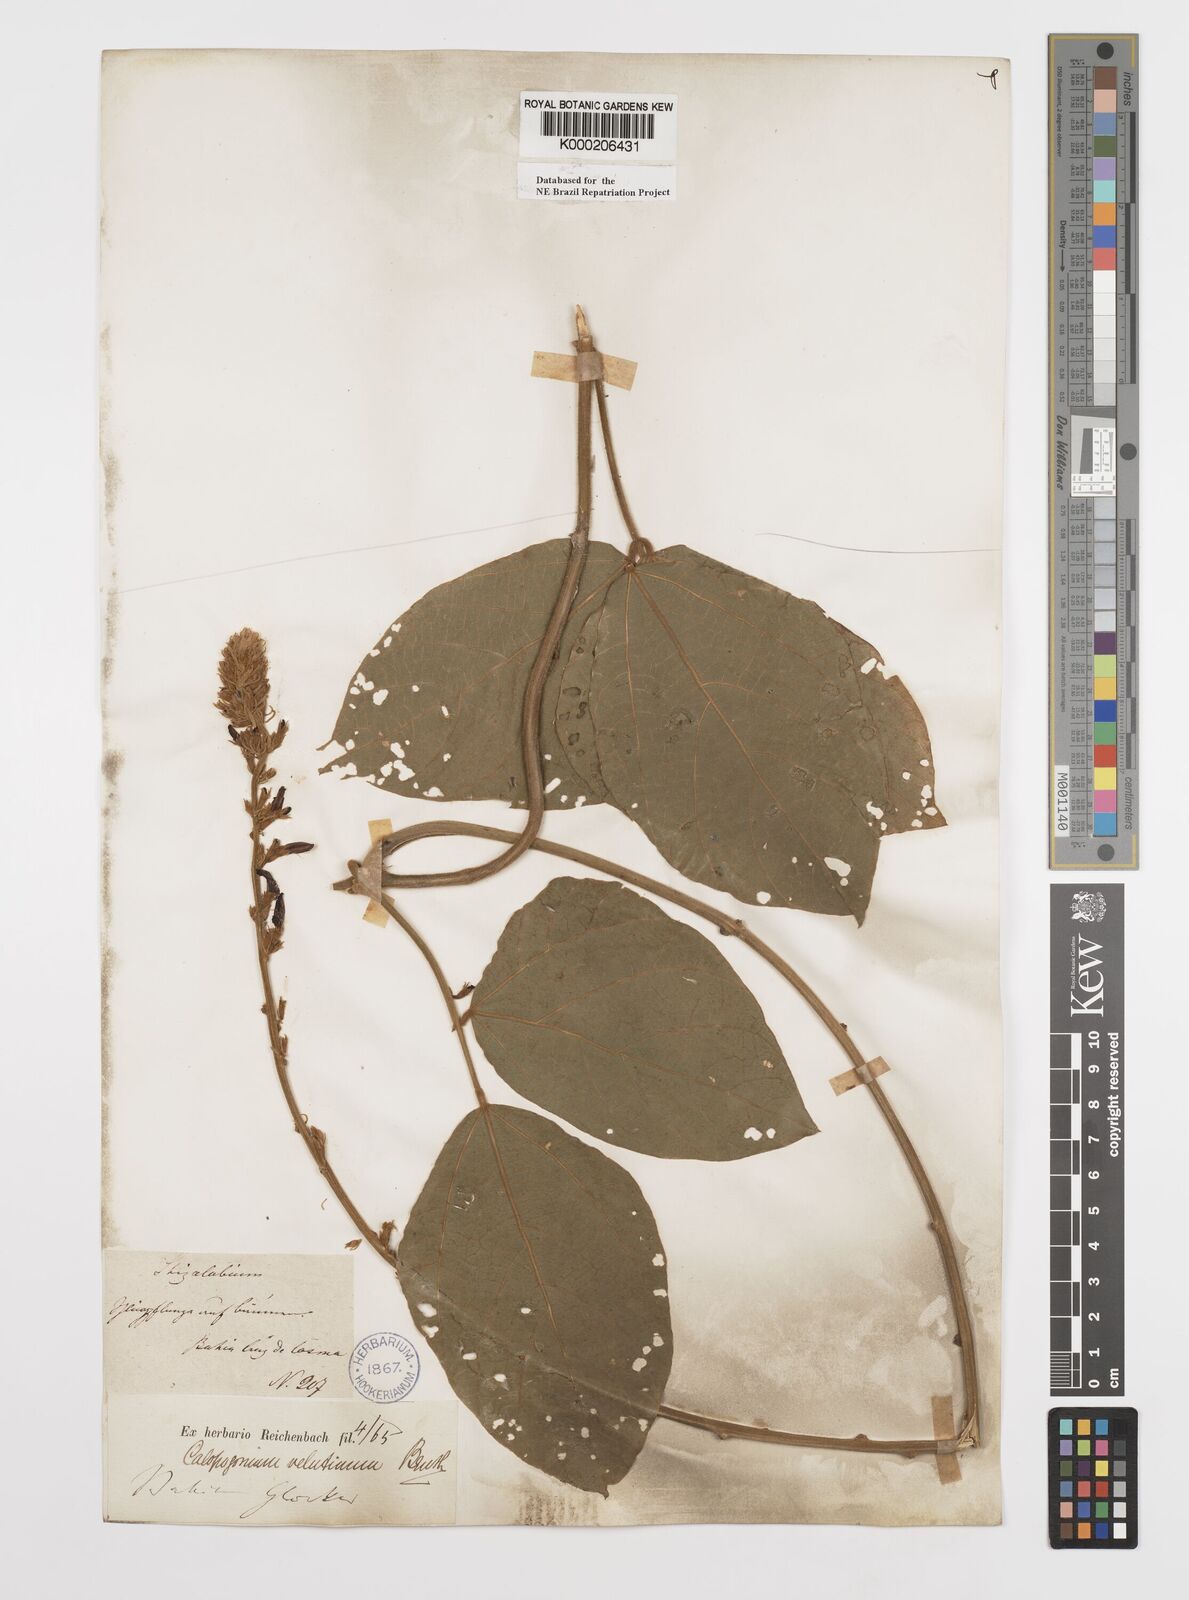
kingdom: Plantae
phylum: Tracheophyta
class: Magnoliopsida
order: Fabales
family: Fabaceae
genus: Calopogonium
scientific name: Calopogonium velutinum
